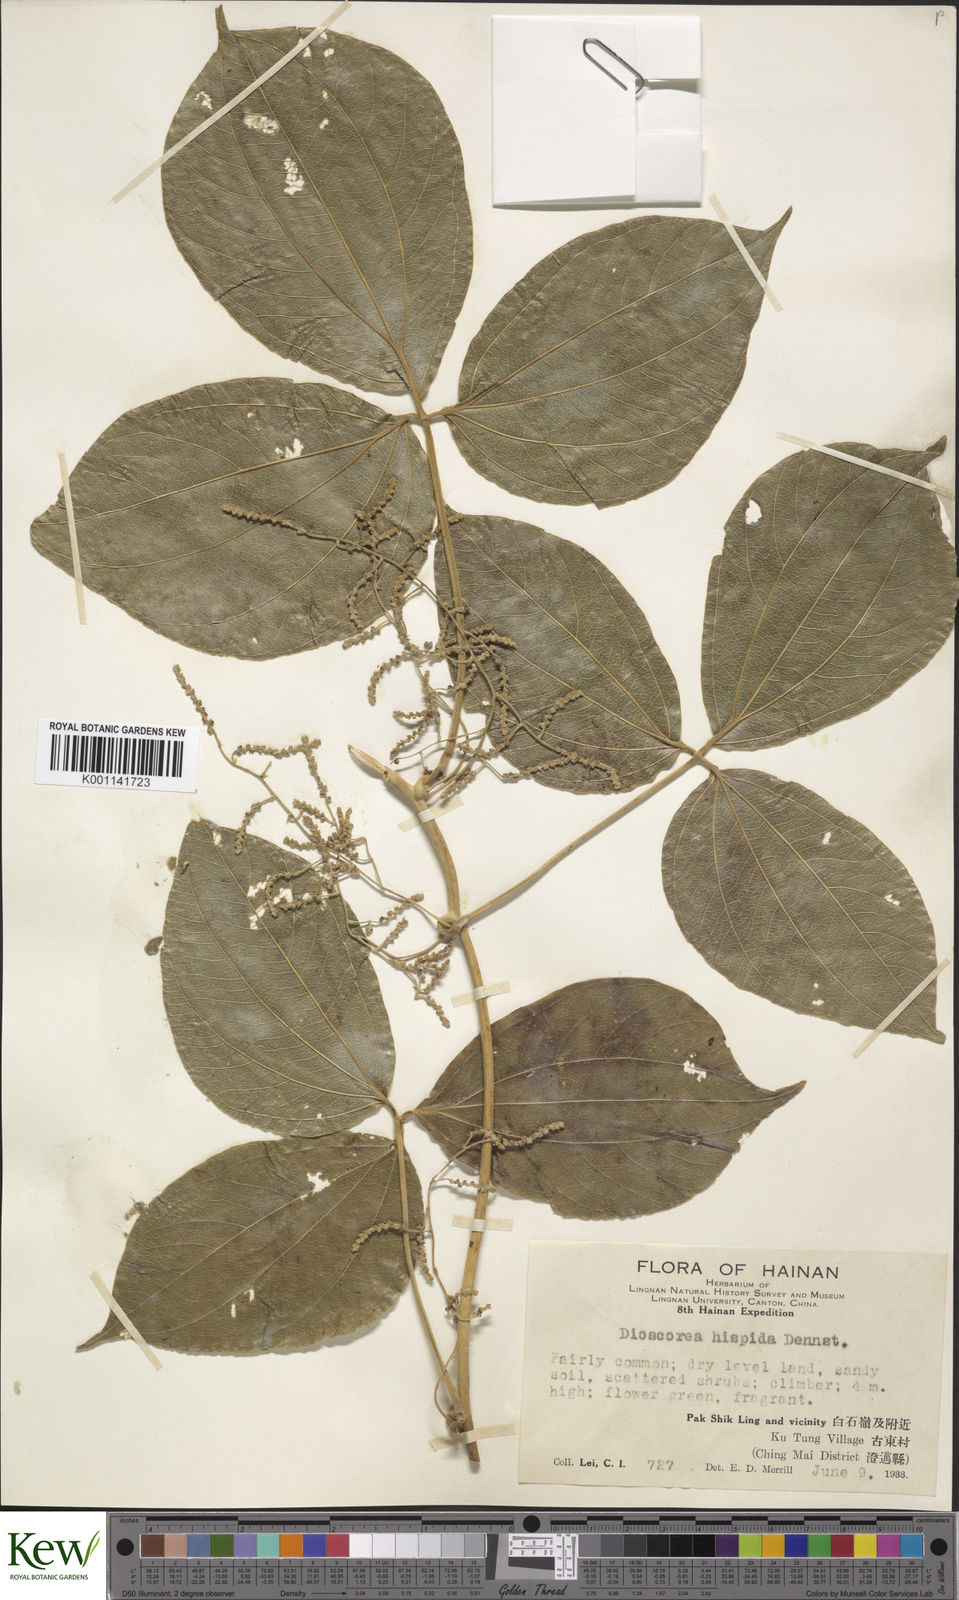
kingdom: Plantae
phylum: Tracheophyta
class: Liliopsida
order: Dioscoreales
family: Dioscoreaceae
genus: Dioscorea
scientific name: Dioscorea hispida
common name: Asiatic bitter yam
